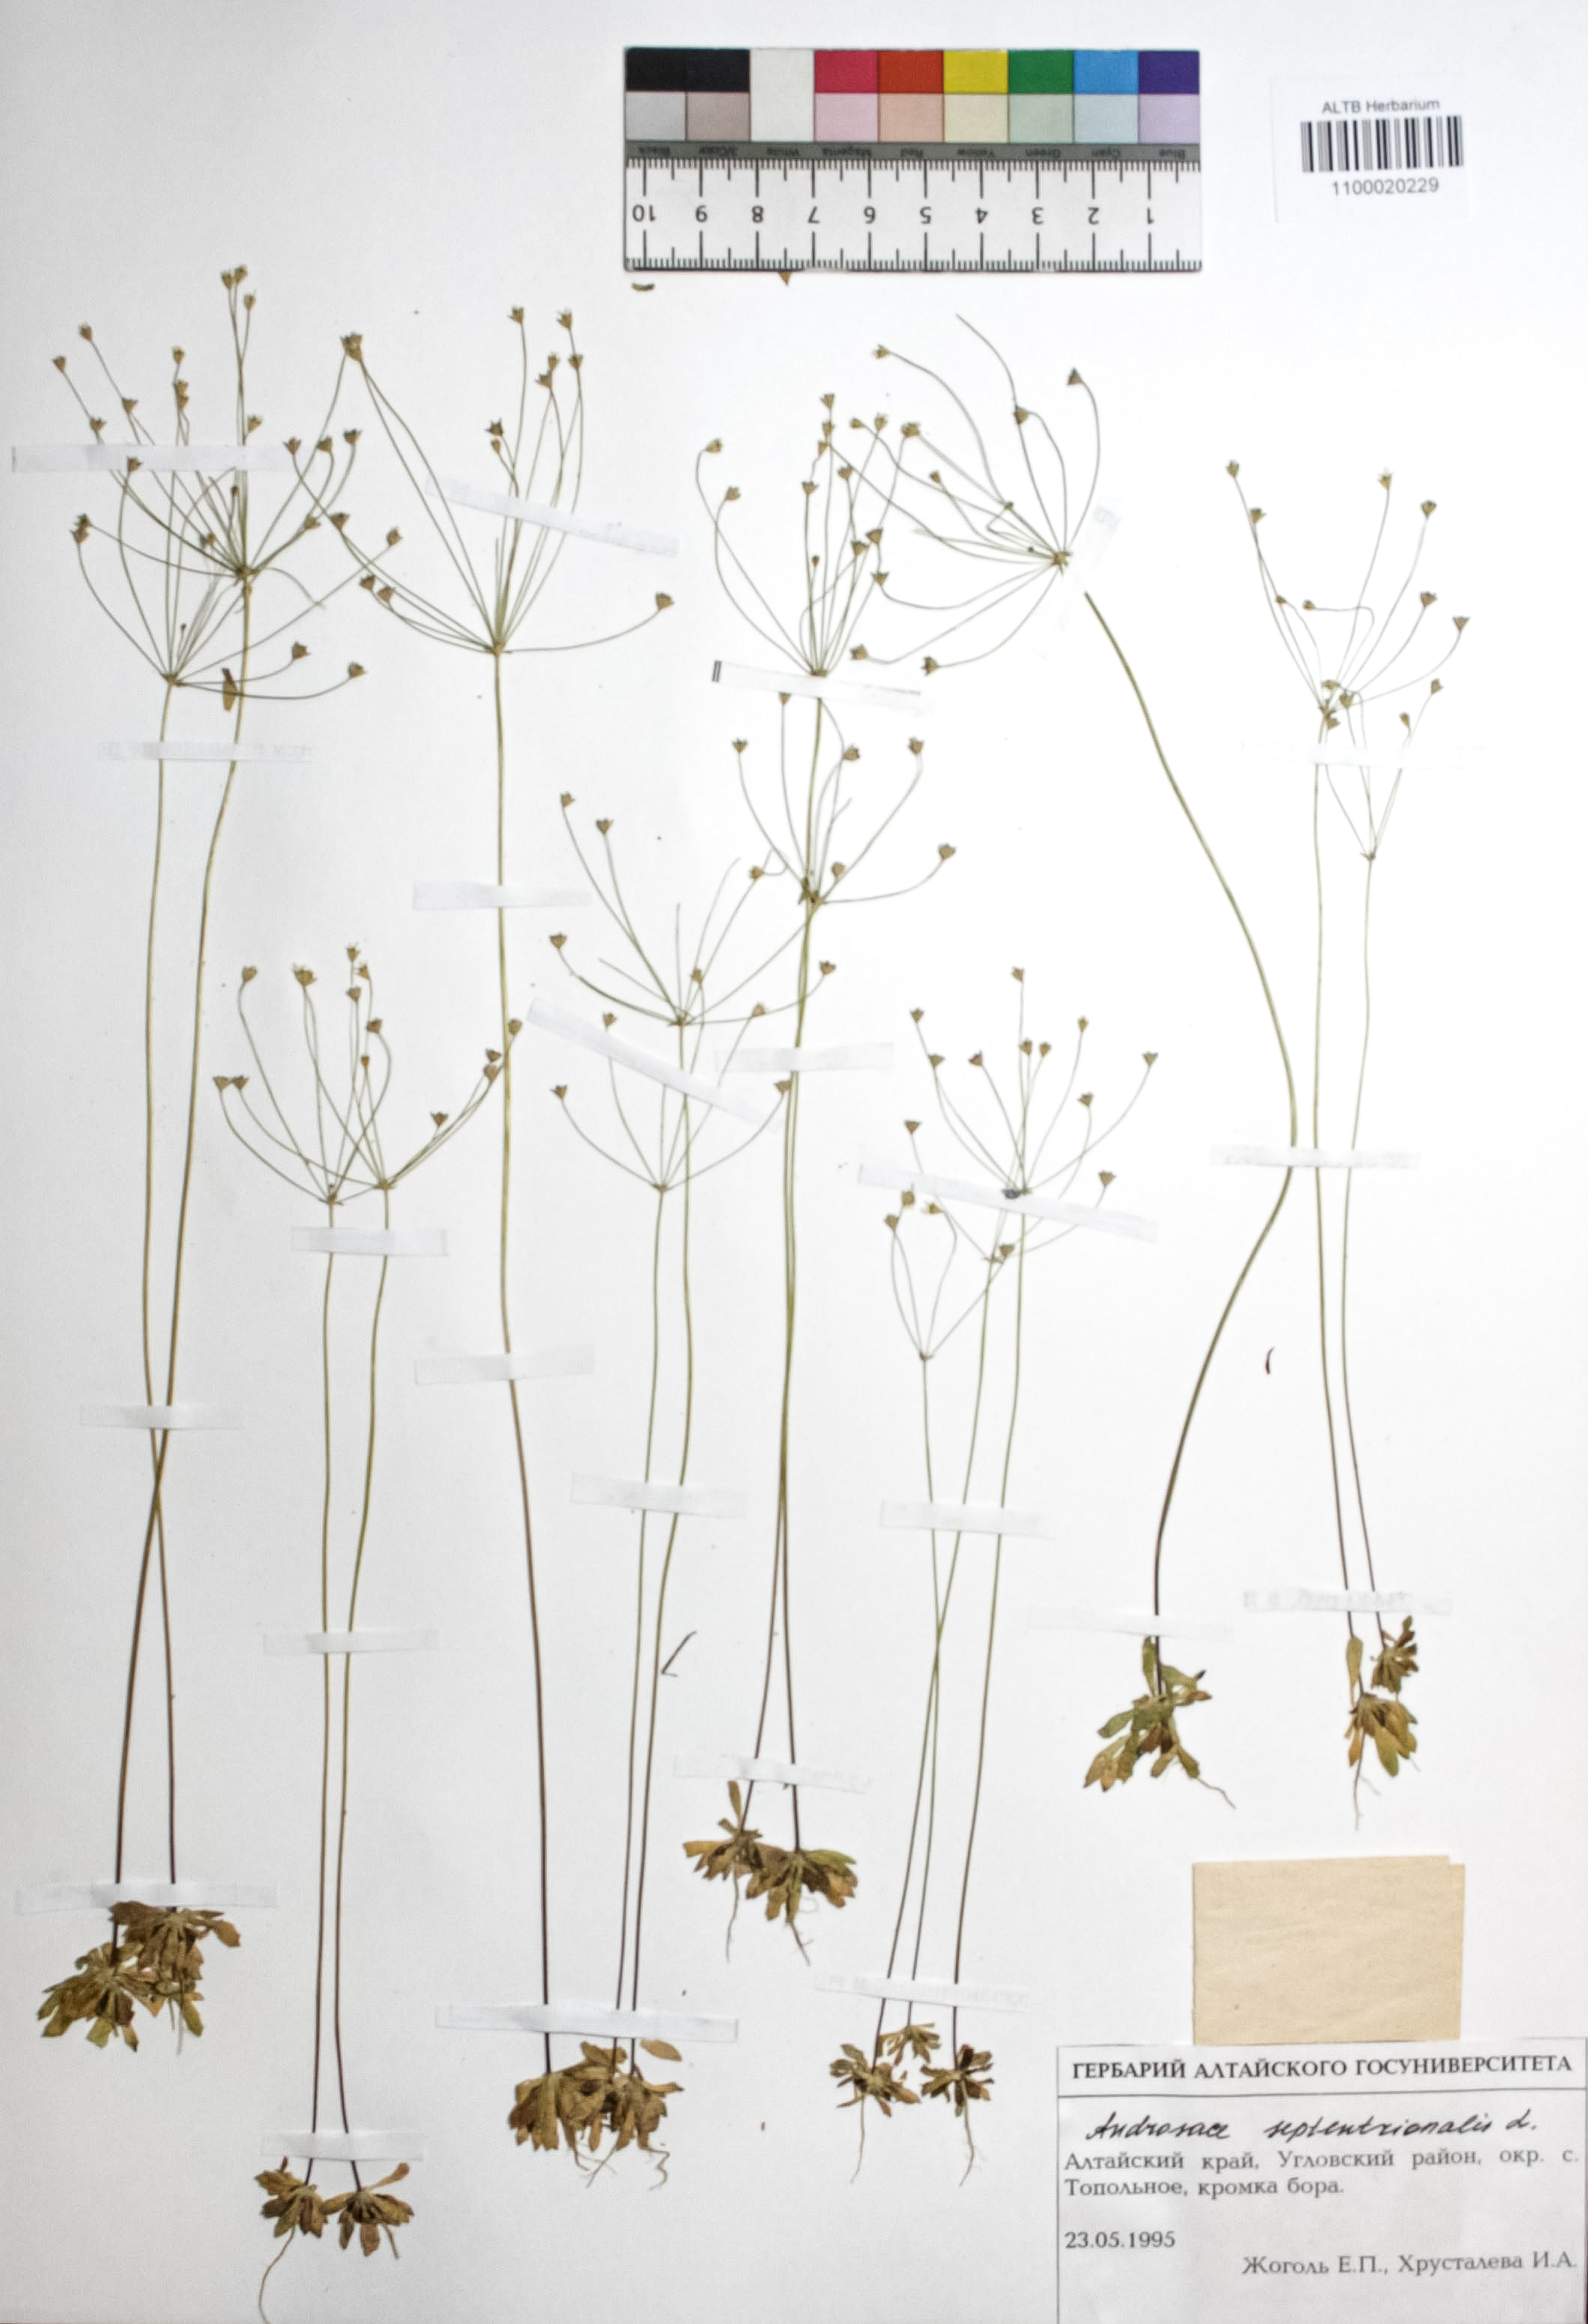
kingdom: Plantae
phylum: Tracheophyta
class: Magnoliopsida
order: Ericales
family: Primulaceae
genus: Androsace
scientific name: Androsace septentrionalis
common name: Hairy northern fairy-candelabra
